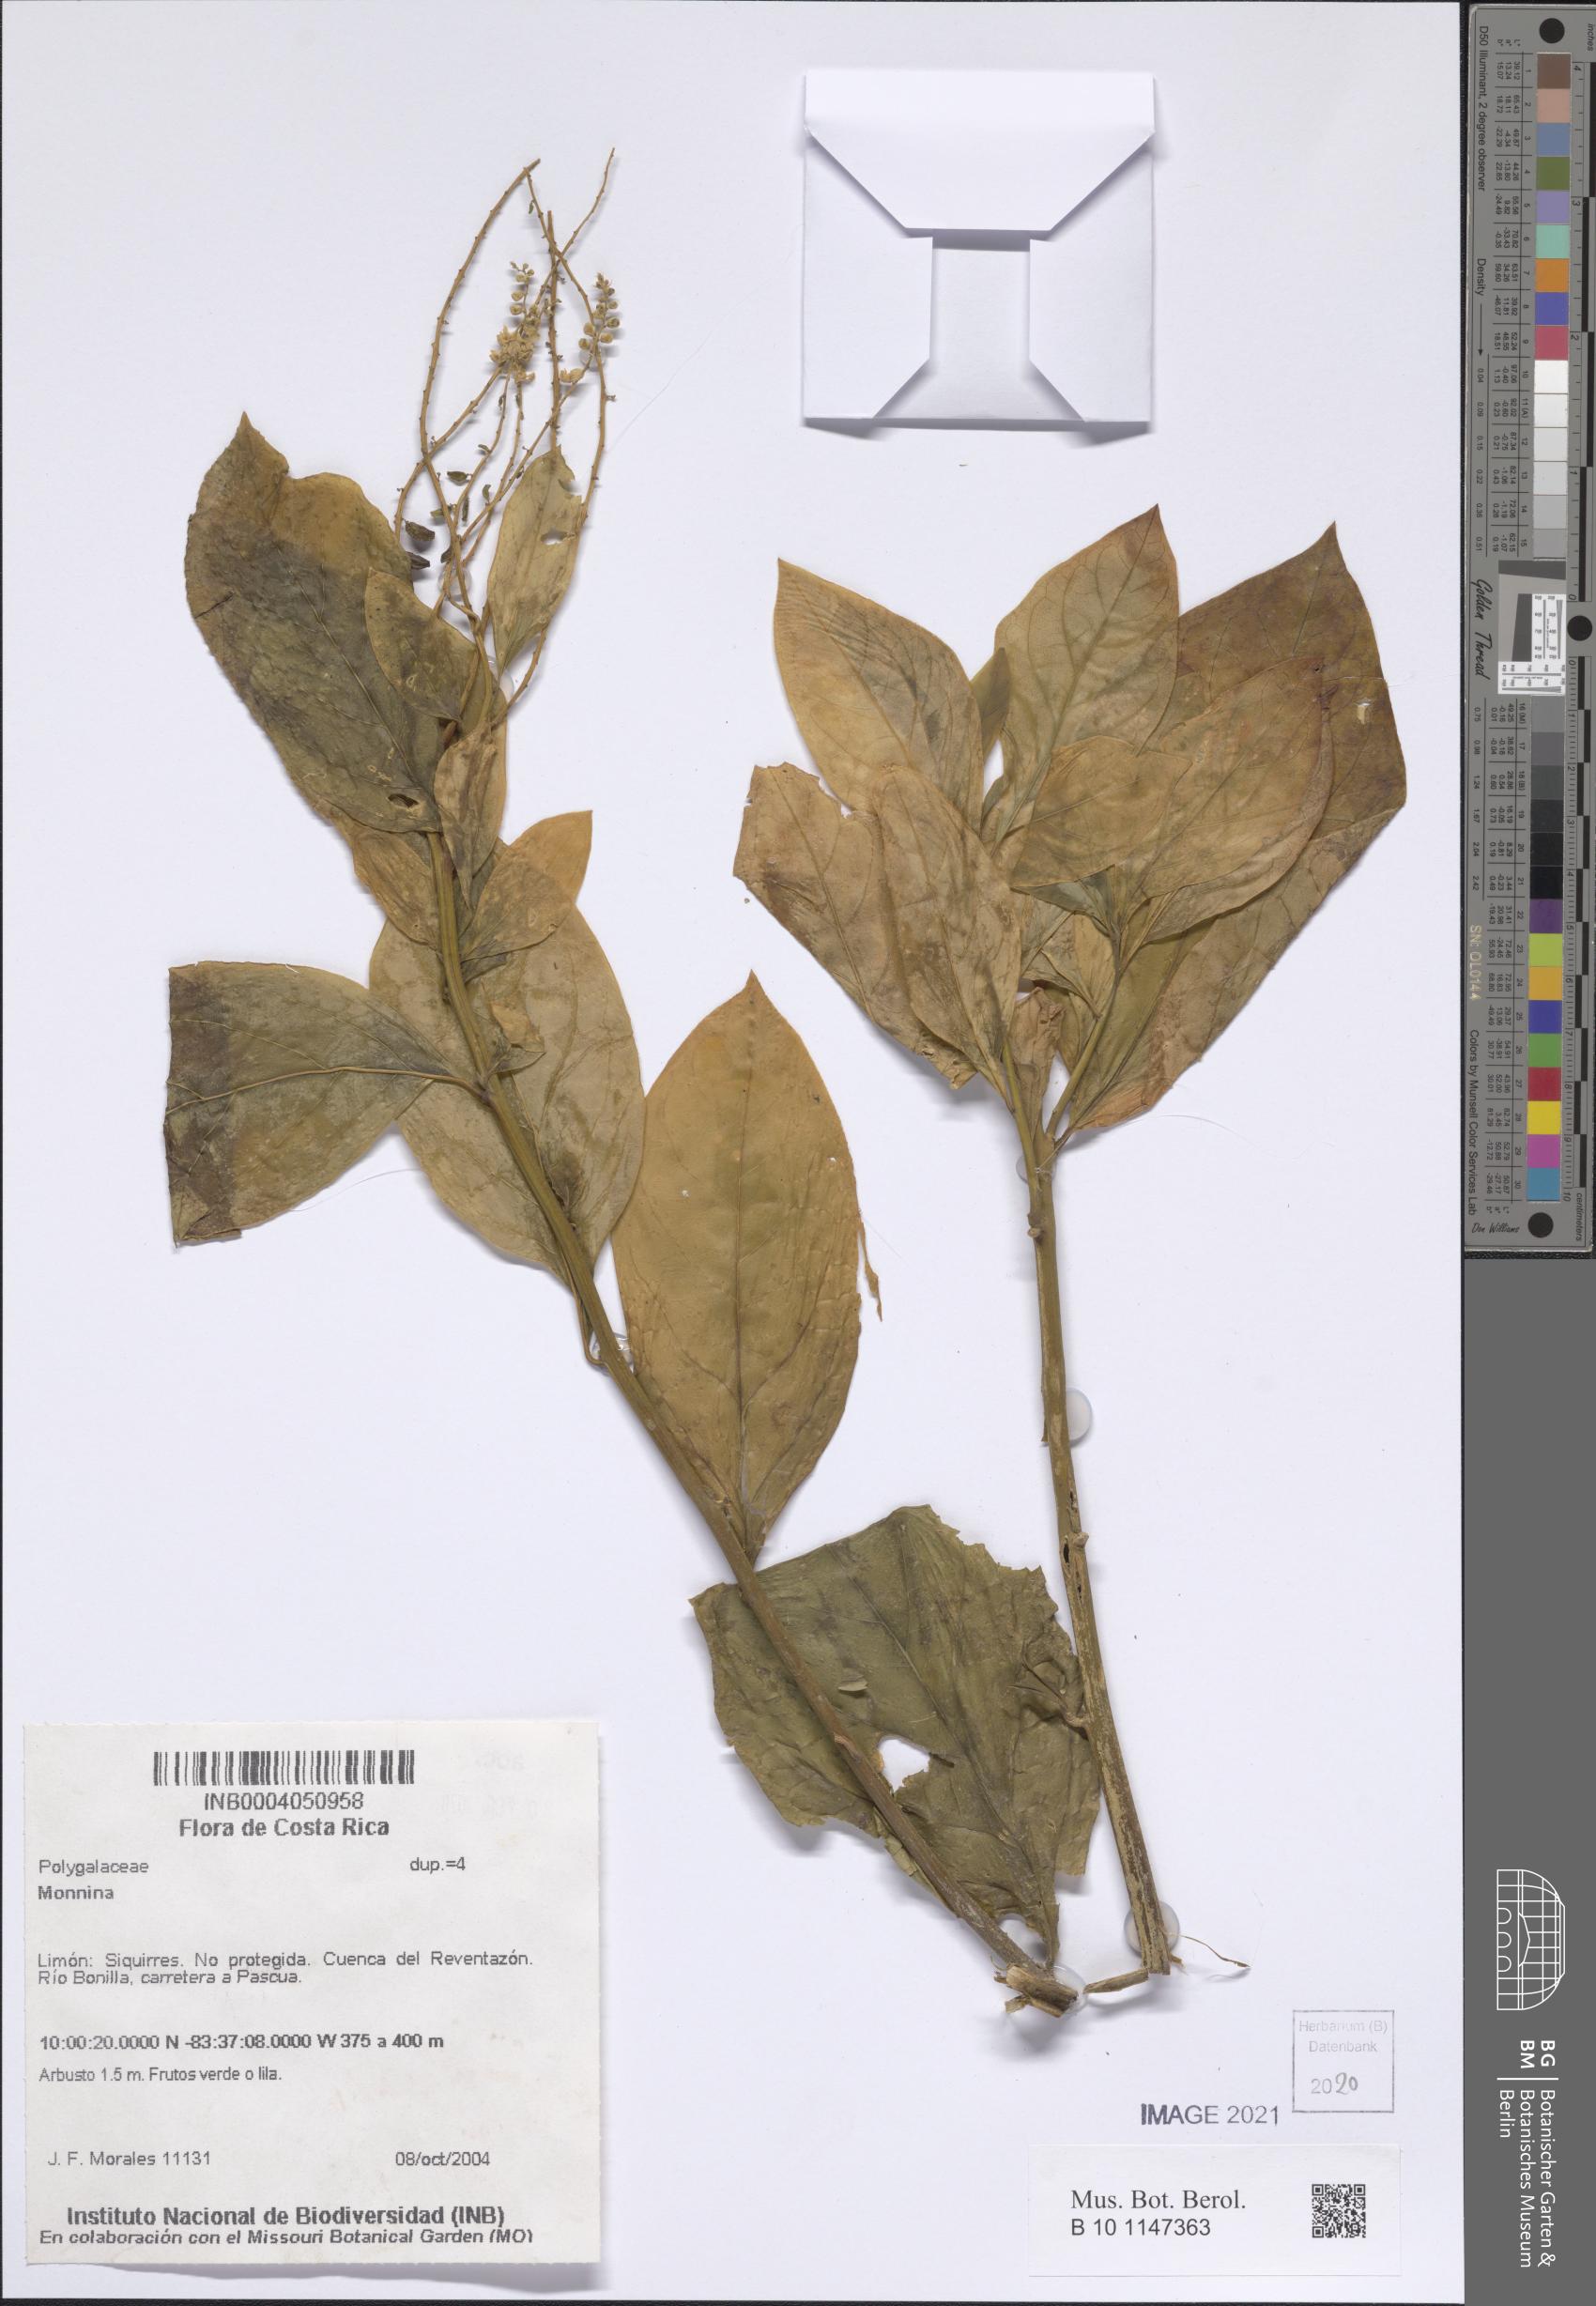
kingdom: Plantae
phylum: Tracheophyta
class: Magnoliopsida
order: Fabales
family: Polygalaceae
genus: Monnina
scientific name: Monnina
